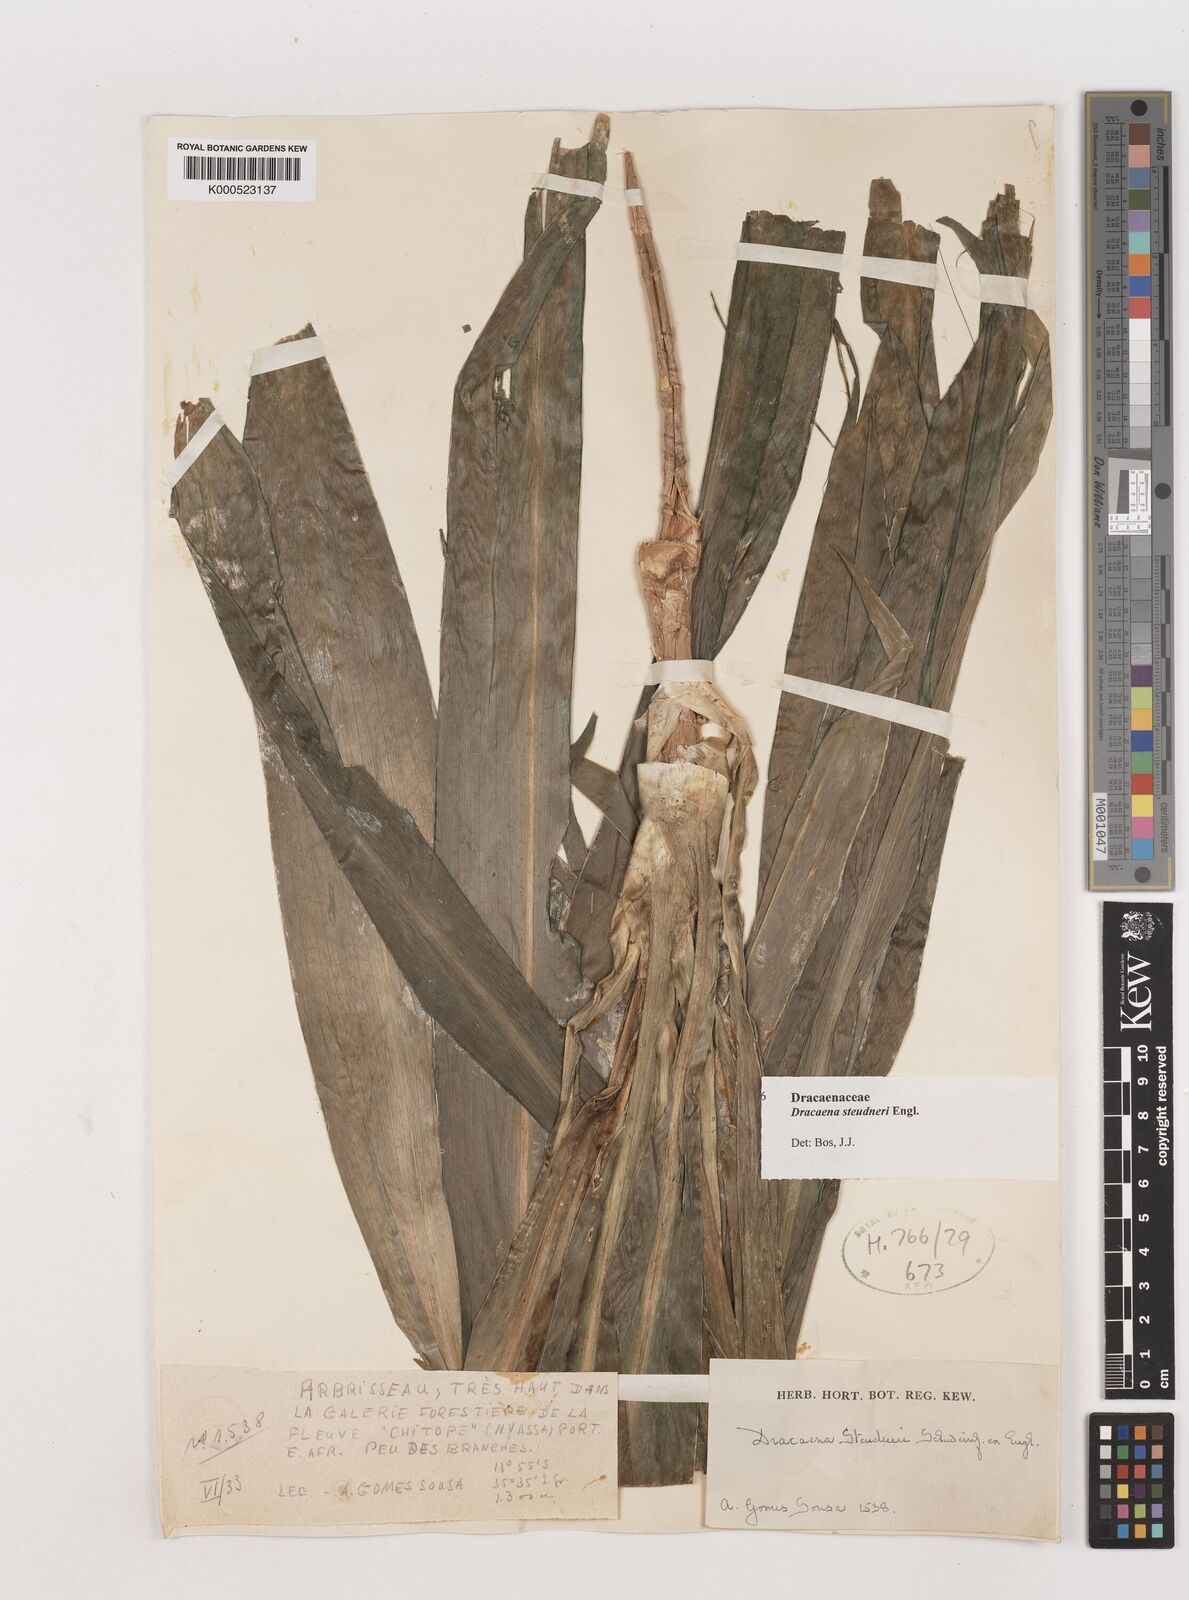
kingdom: Plantae
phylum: Tracheophyta
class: Liliopsida
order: Asparagales
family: Asparagaceae
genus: Dracaena
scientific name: Dracaena steudneri
